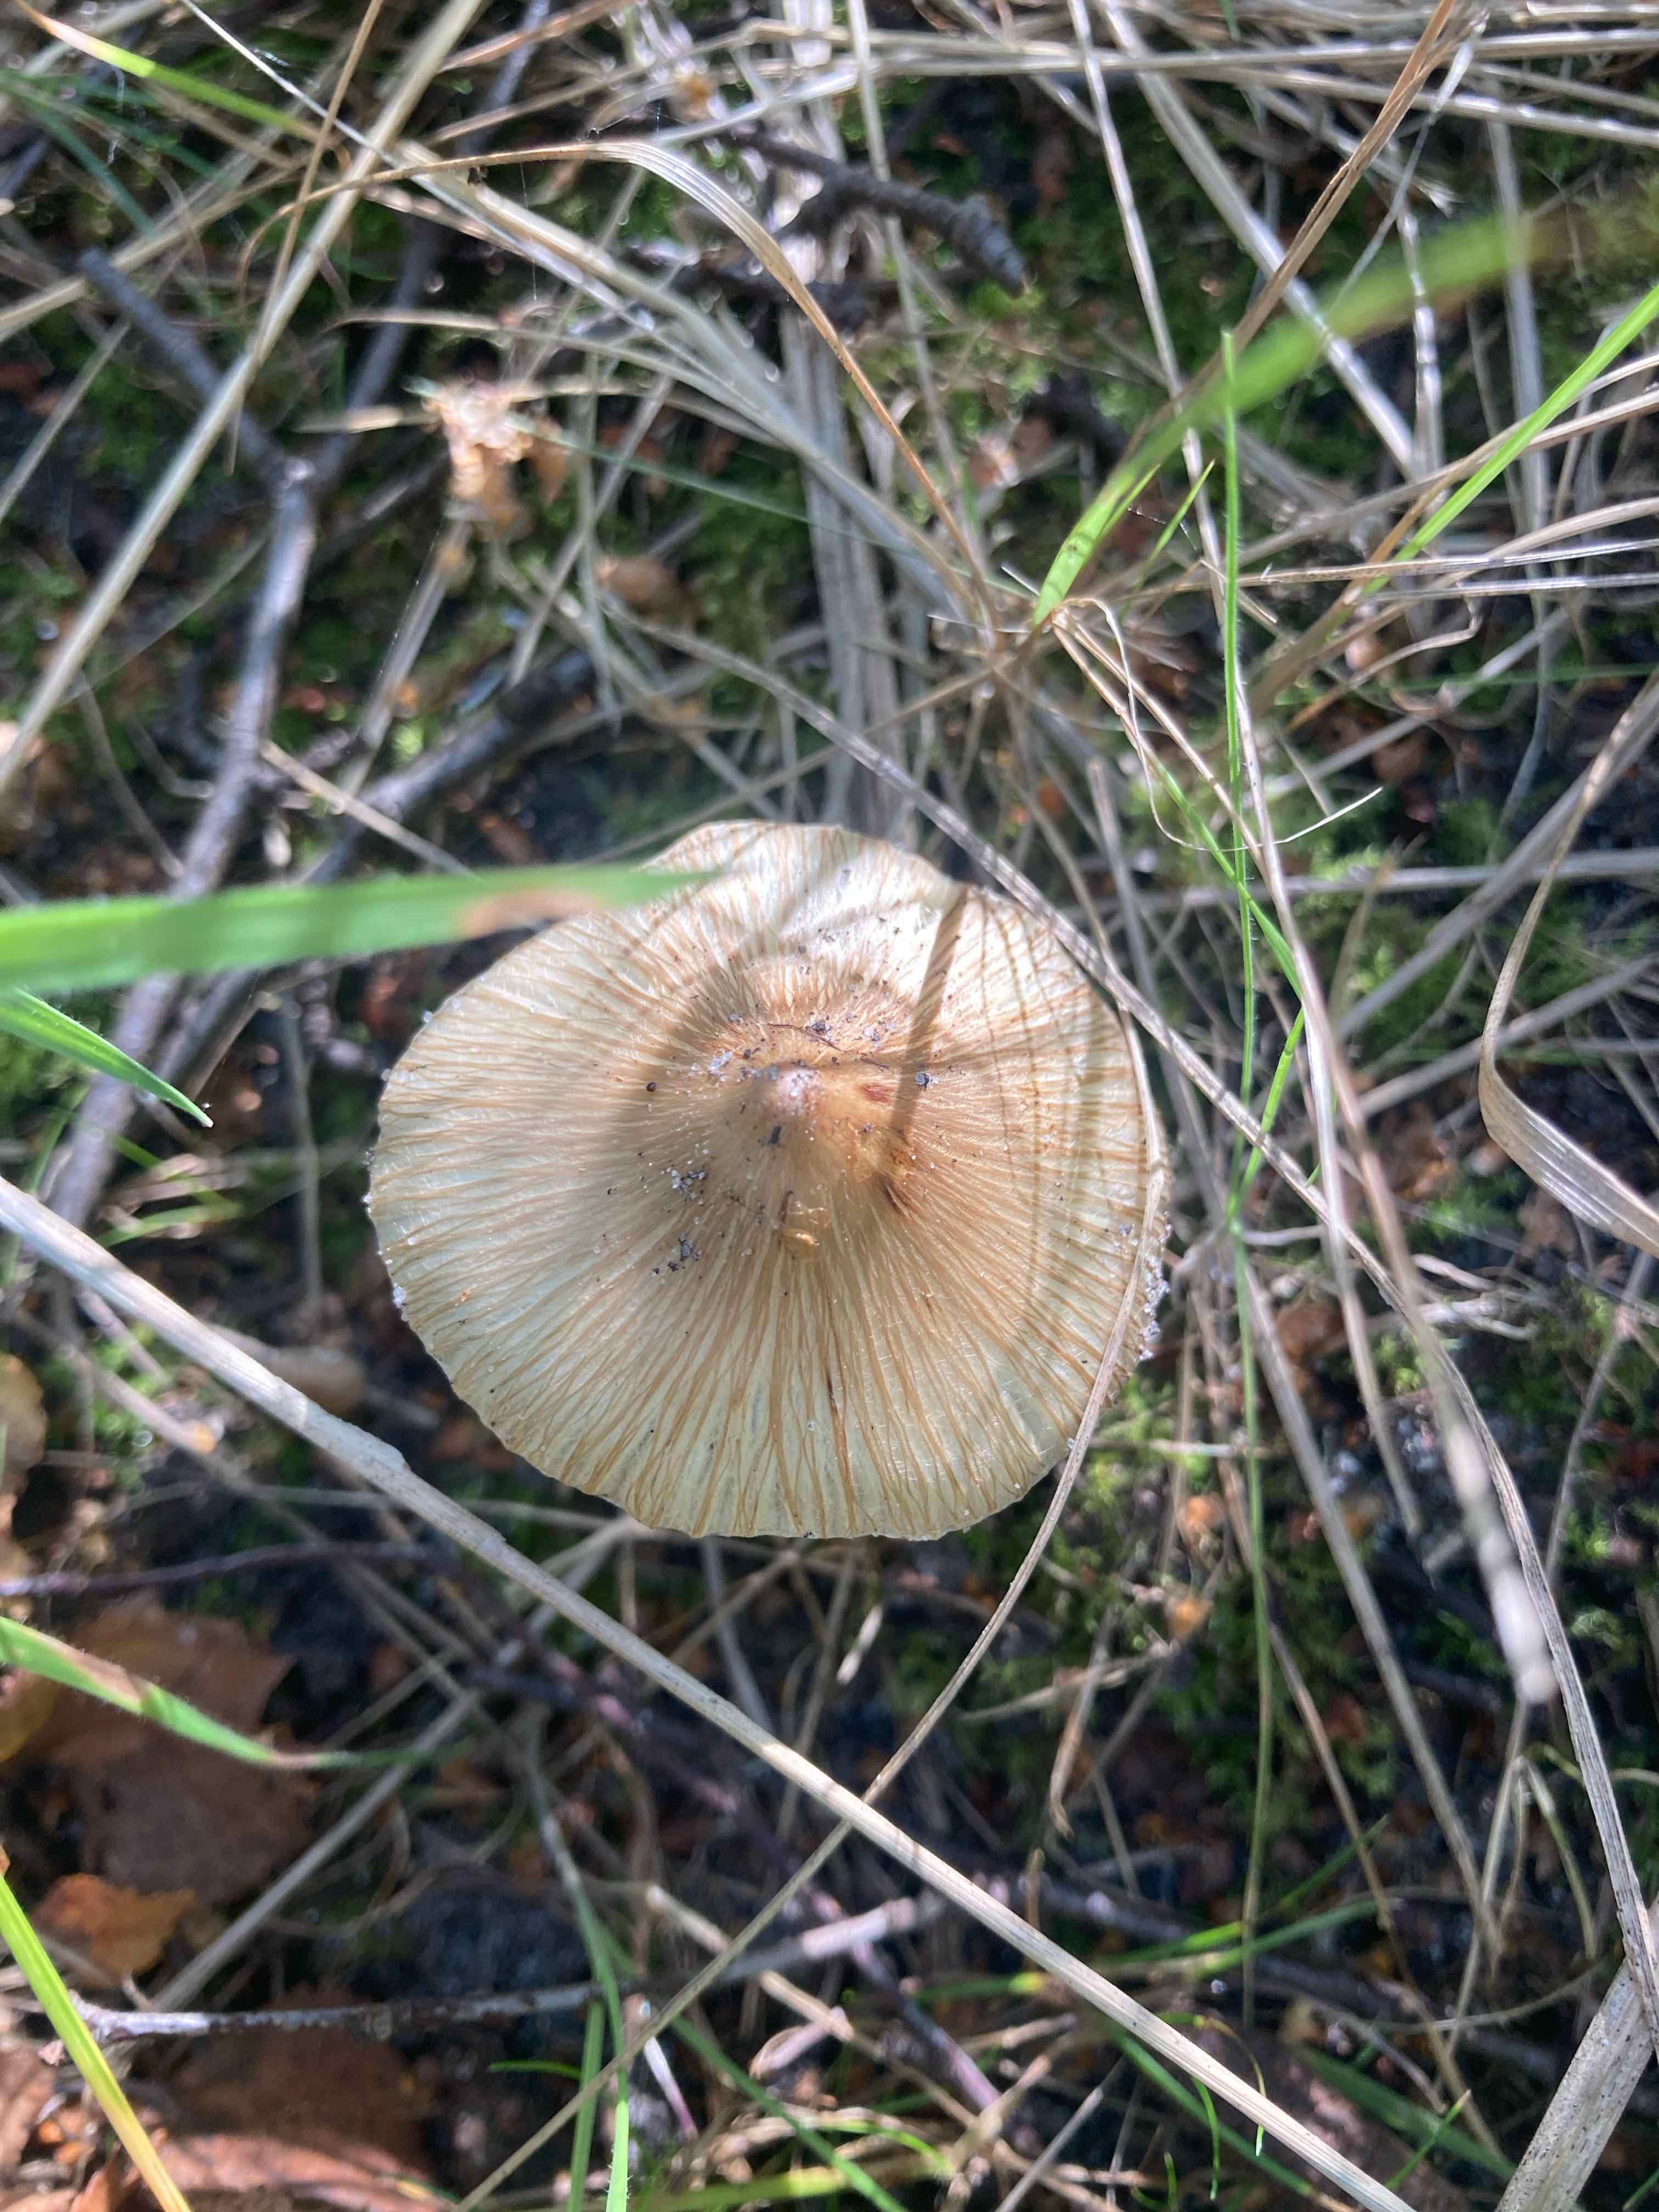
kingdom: Fungi
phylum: Basidiomycota
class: Agaricomycetes
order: Agaricales
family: Inocybaceae
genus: Pseudosperma
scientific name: Pseudosperma
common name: trævlhat
